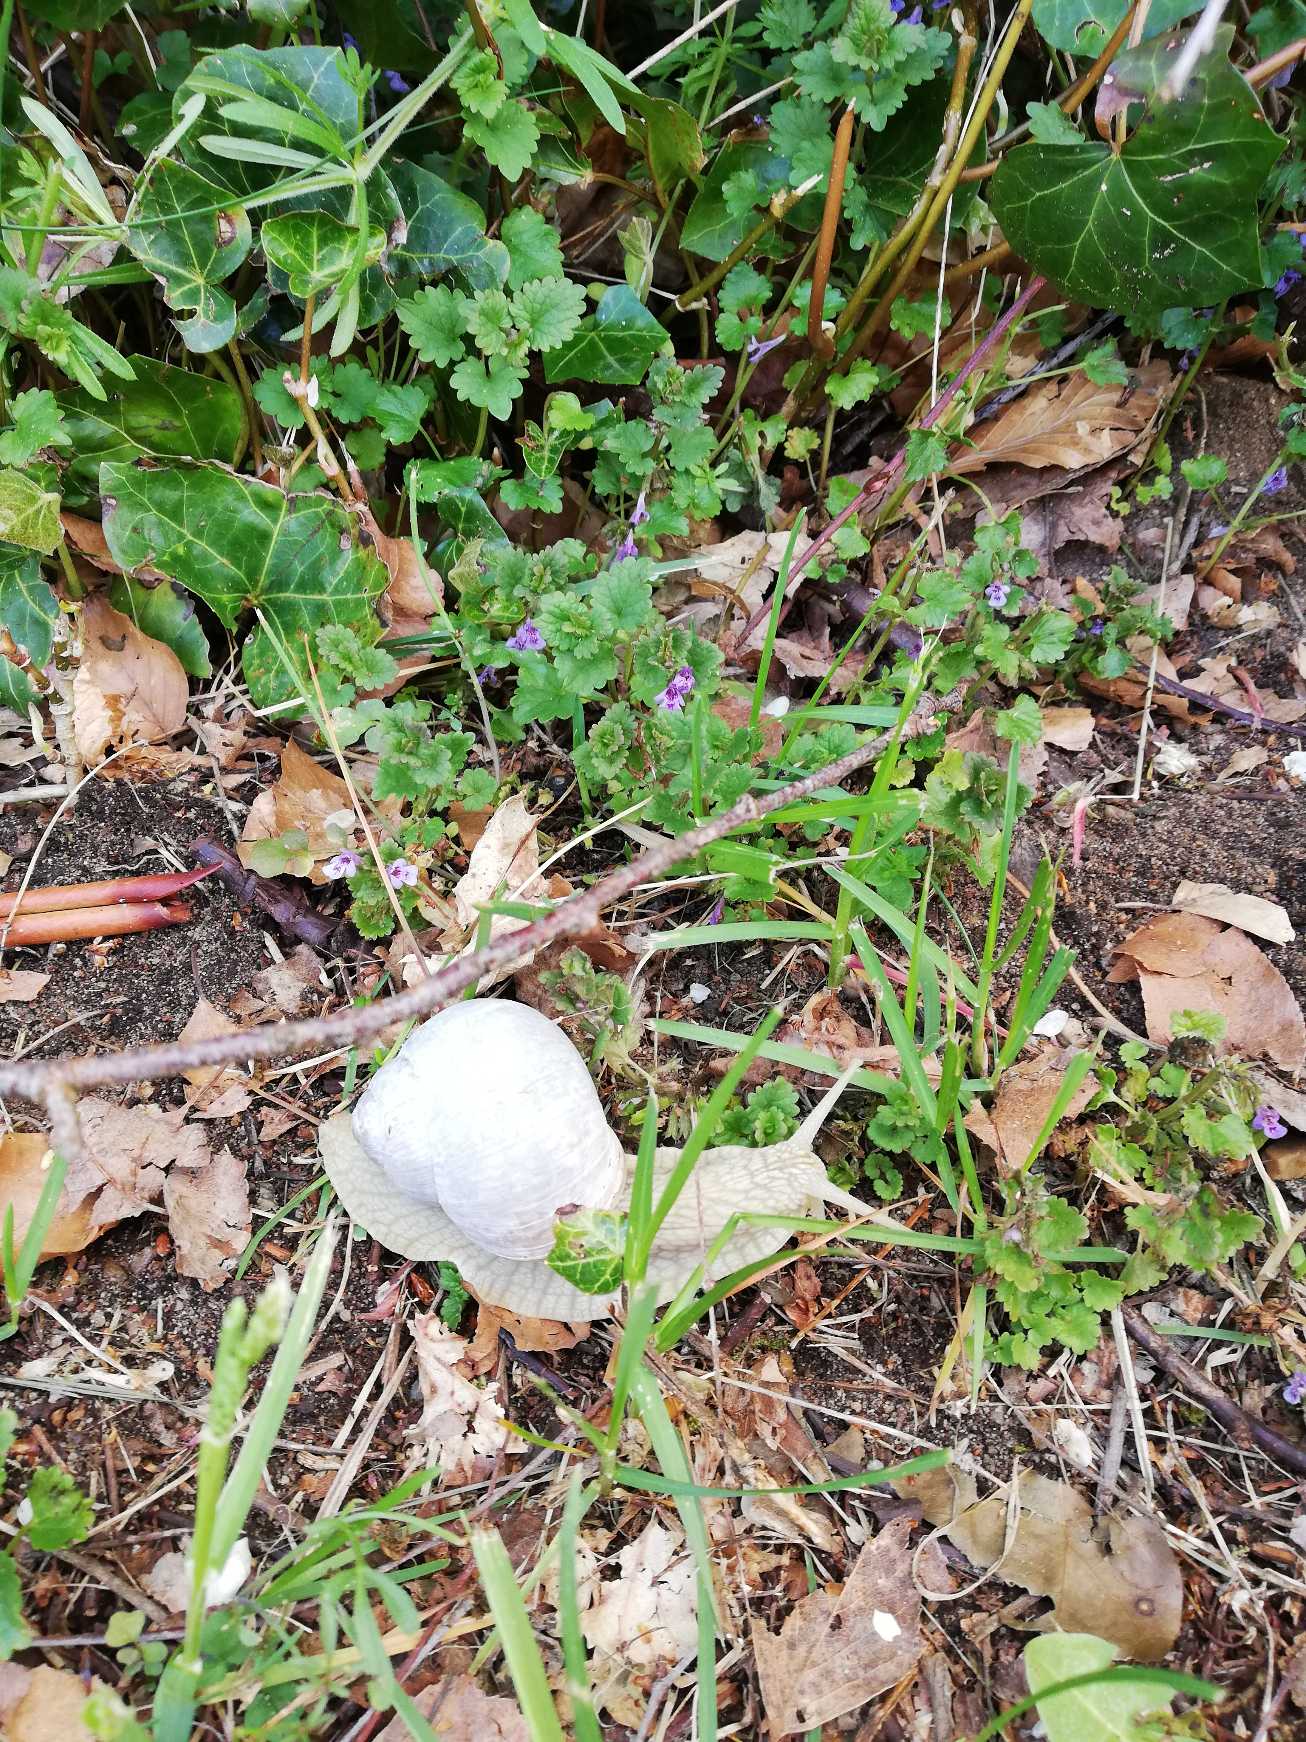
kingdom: Animalia
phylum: Mollusca
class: Gastropoda
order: Stylommatophora
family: Helicidae
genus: Helix
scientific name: Helix pomatia
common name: Vinbjergsnegl
